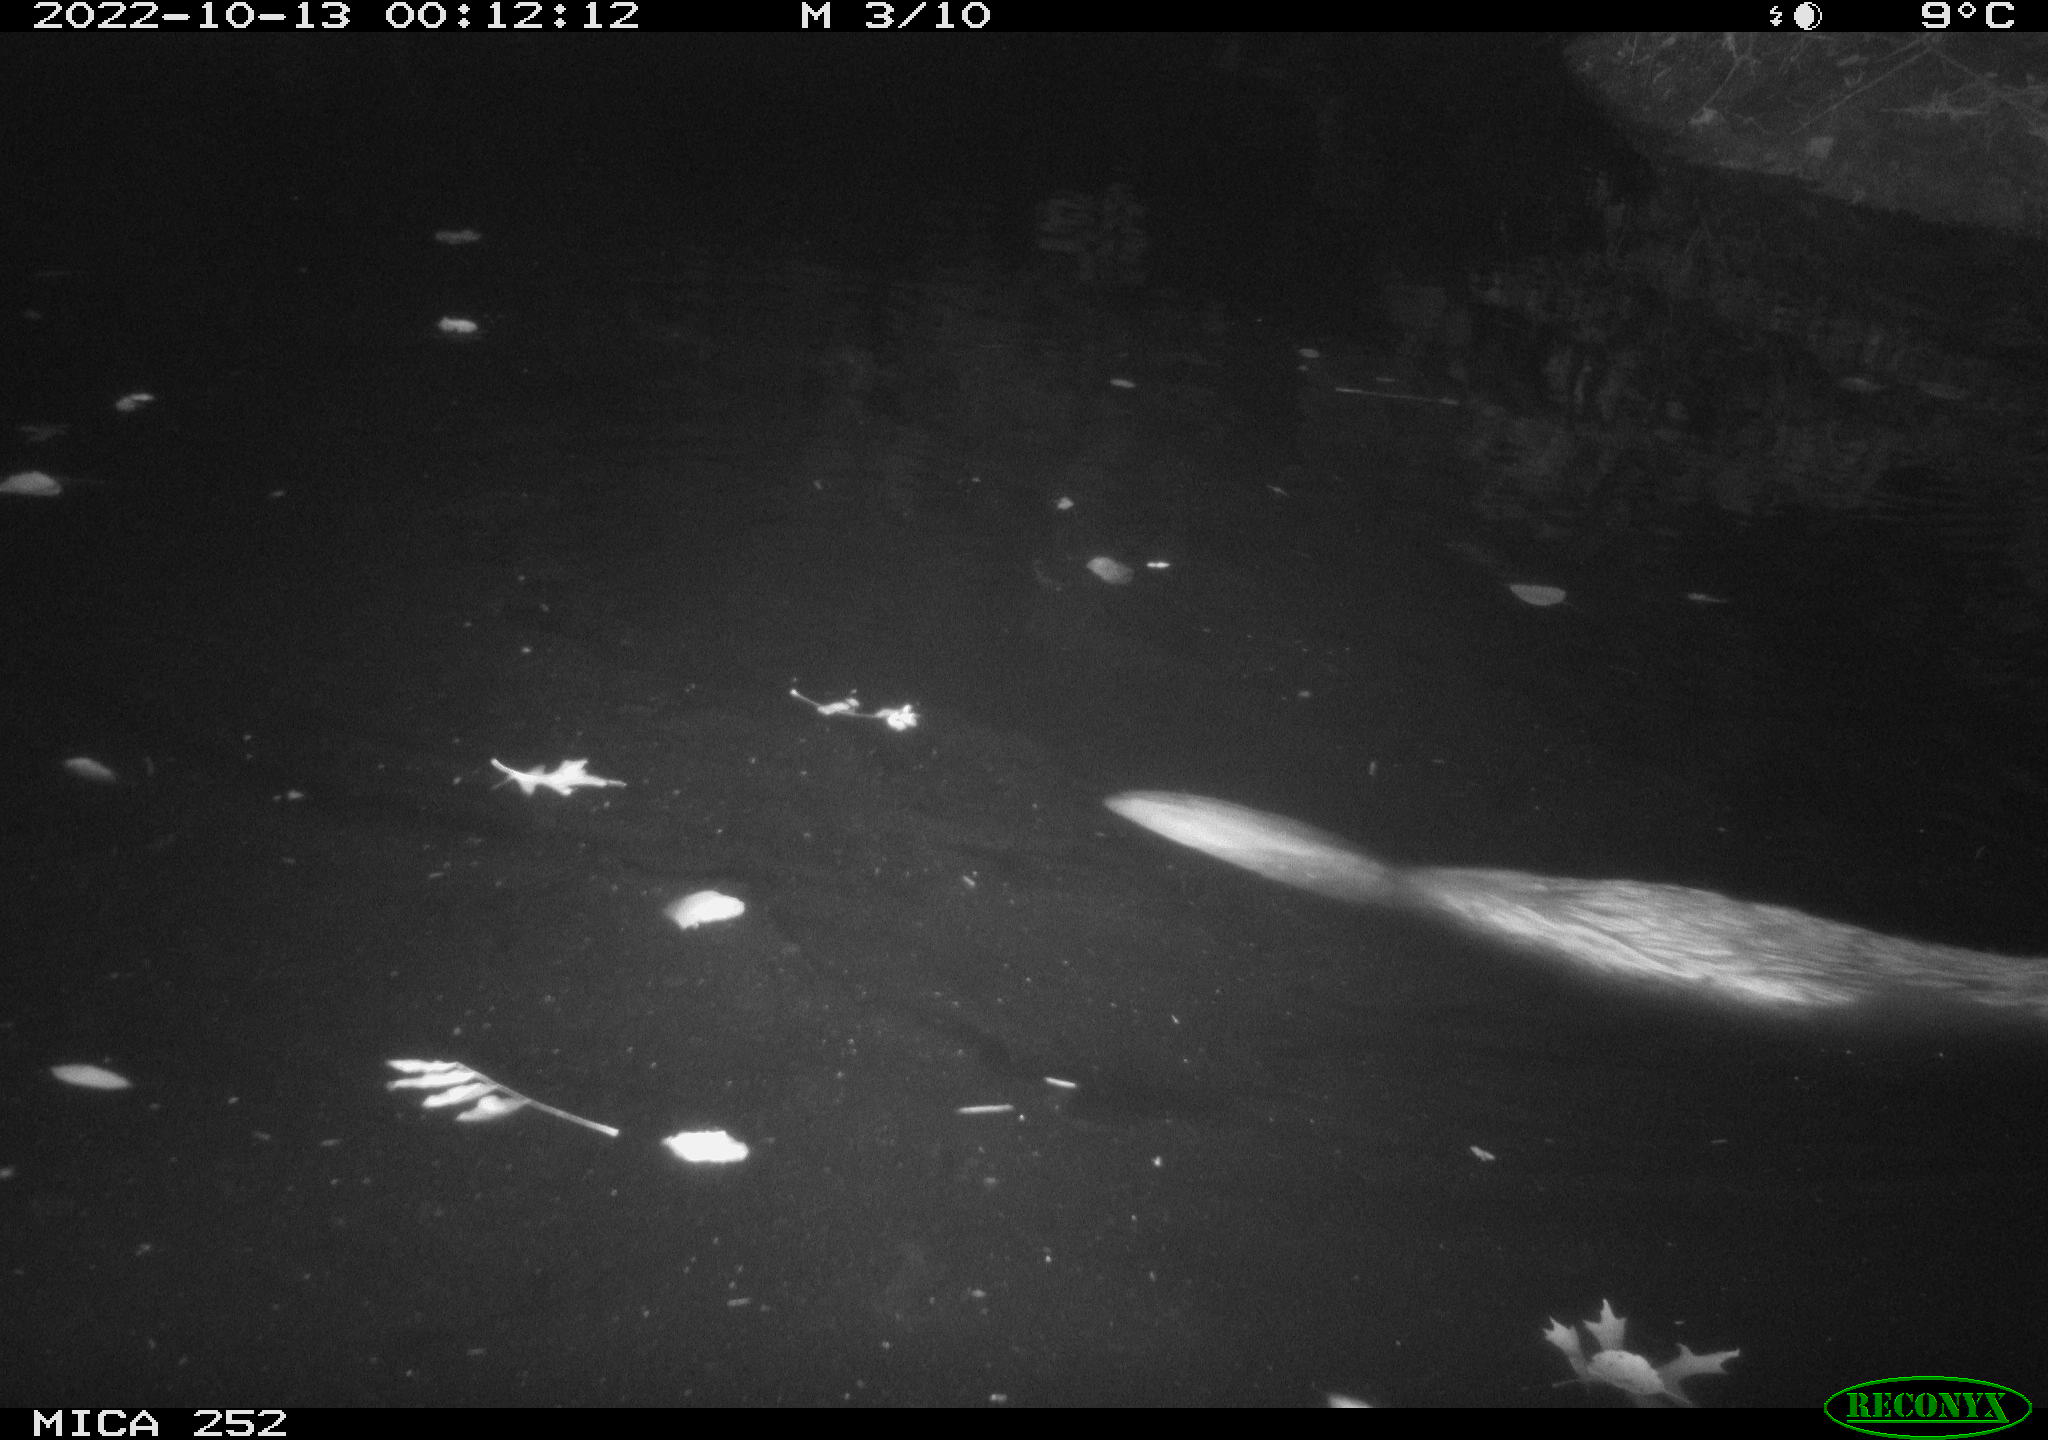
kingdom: Animalia
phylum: Chordata
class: Mammalia
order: Rodentia
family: Castoridae
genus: Castor
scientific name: Castor fiber
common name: Eurasian beaver
